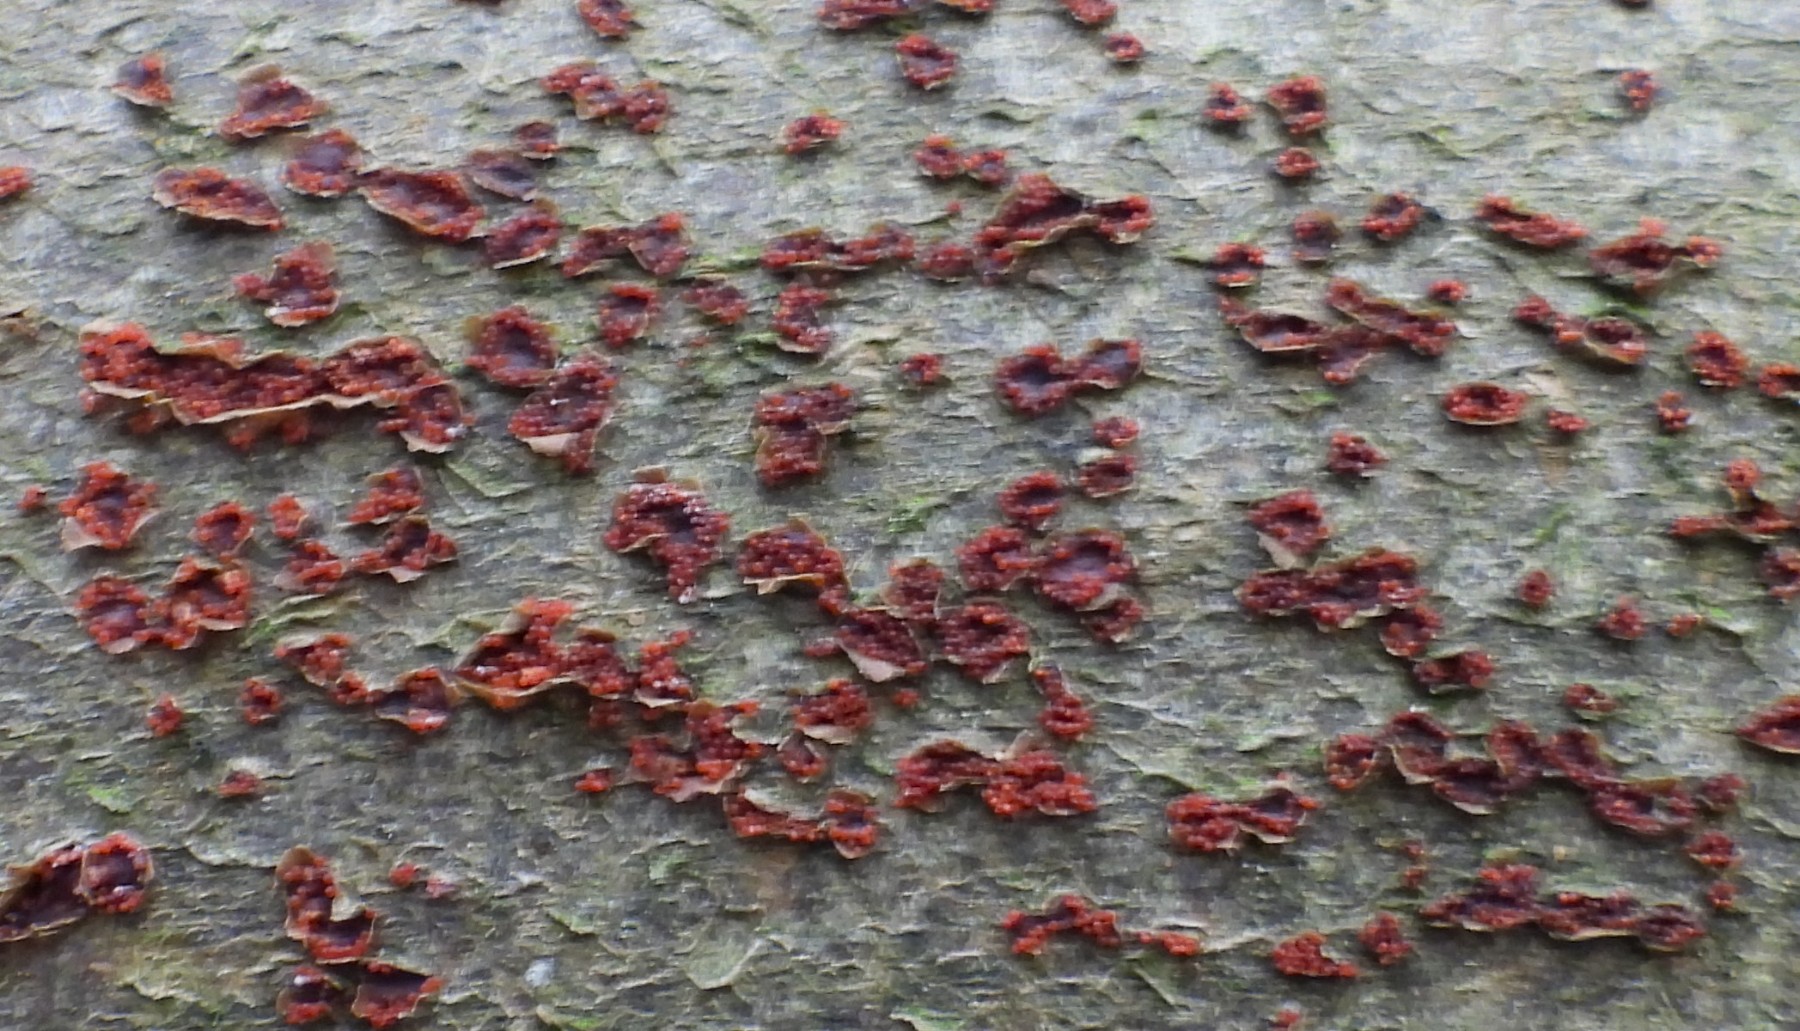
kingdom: Fungi
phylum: Ascomycota
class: Sordariomycetes
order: Hypocreales
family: Nectriaceae
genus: Neonectria
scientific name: Neonectria coccinea
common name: bøgebark-cinnobersvamp
